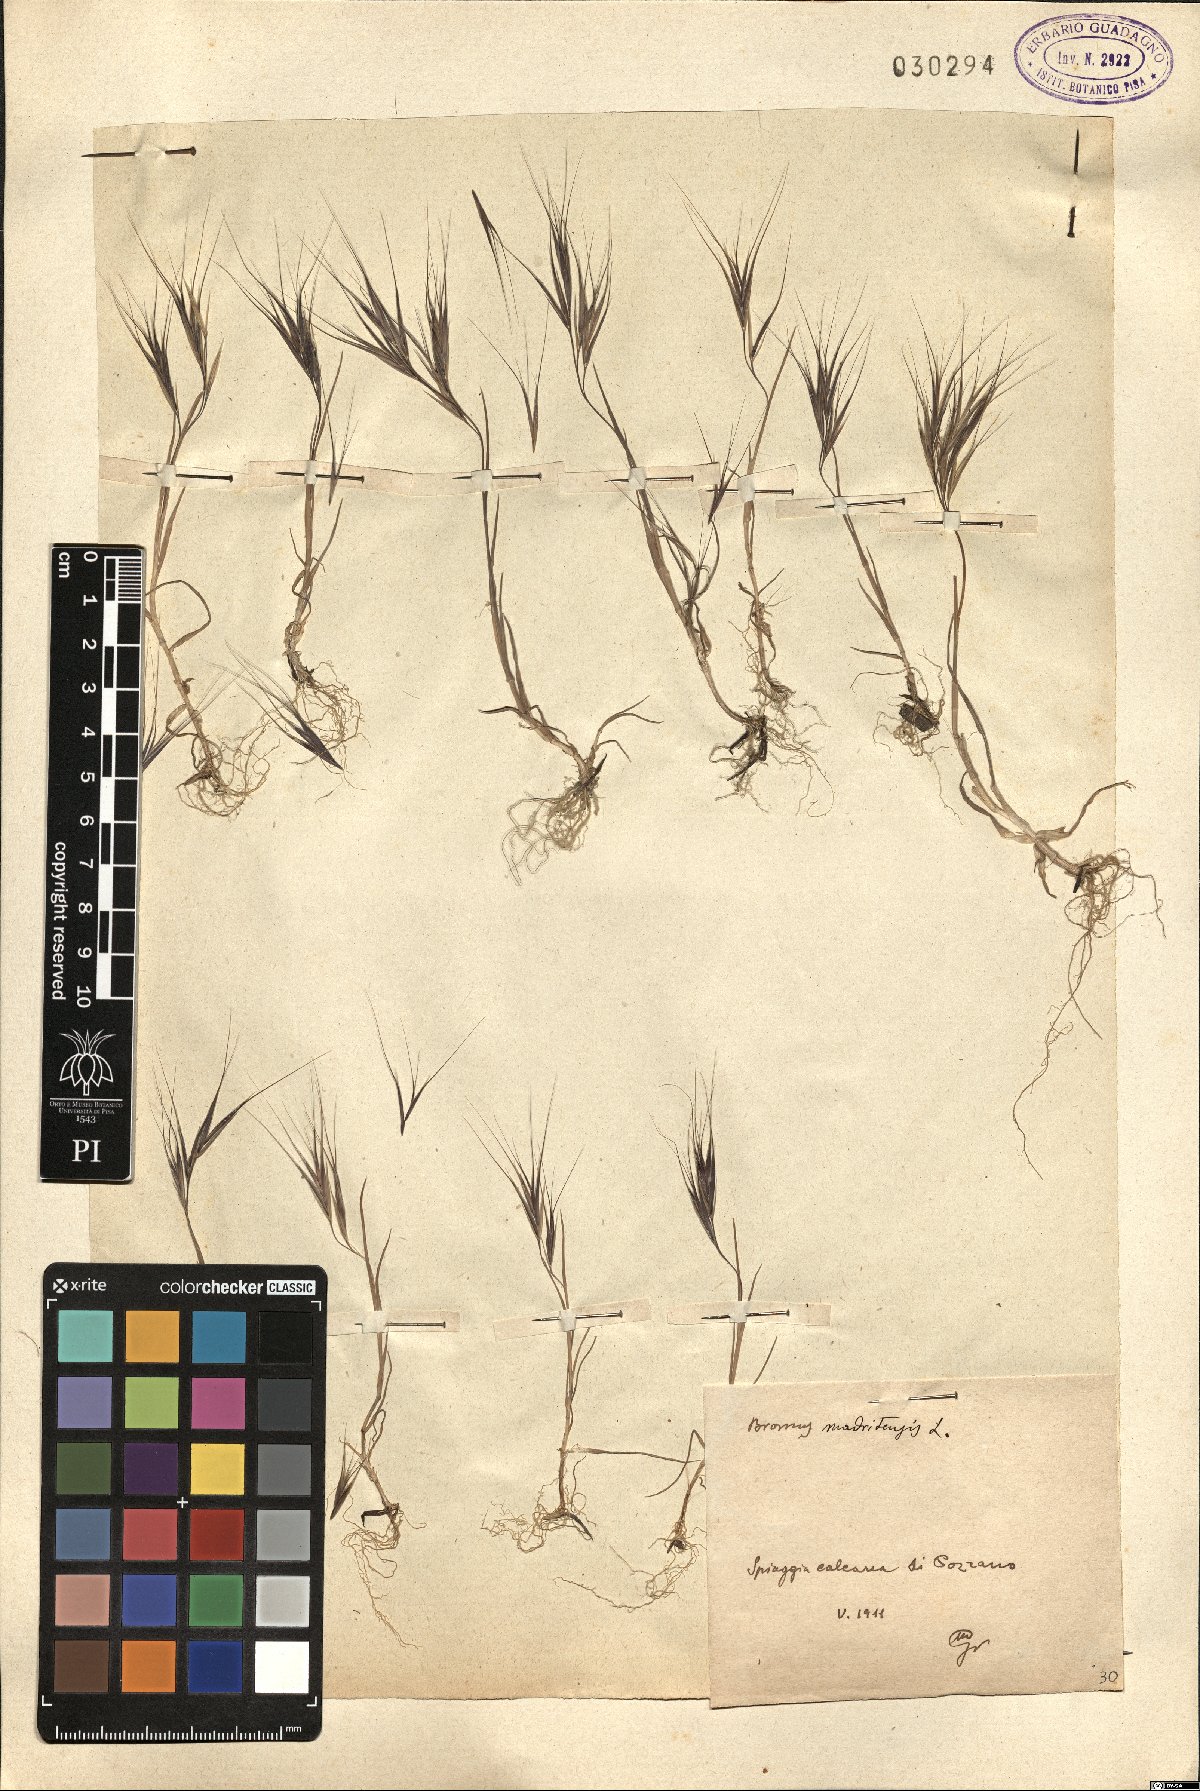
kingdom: Plantae
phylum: Tracheophyta
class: Liliopsida
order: Poales
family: Poaceae
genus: Bromus
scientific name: Bromus madritensis
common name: Compact brome
